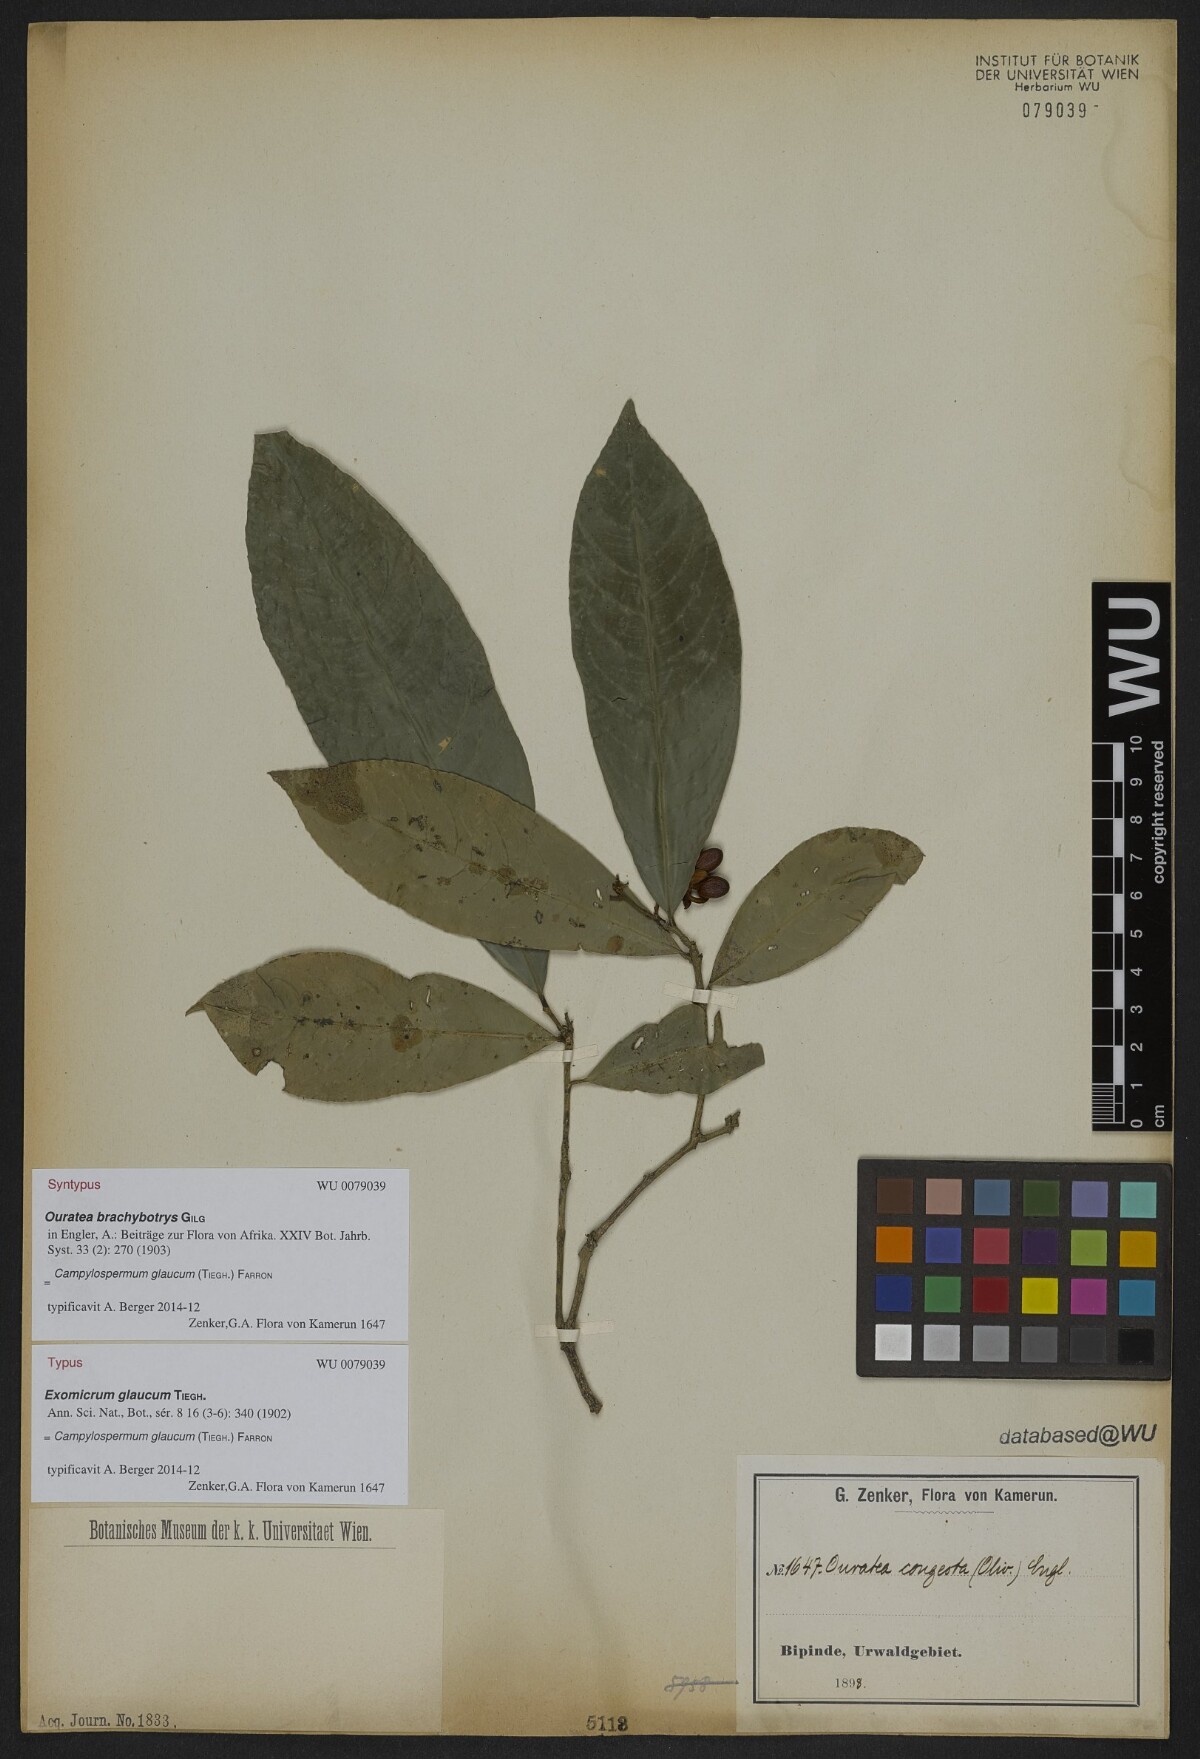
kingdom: Plantae
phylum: Tracheophyta
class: Magnoliopsida
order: Malpighiales
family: Ochnaceae
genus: Campylospermum
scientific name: Campylospermum glaucum
